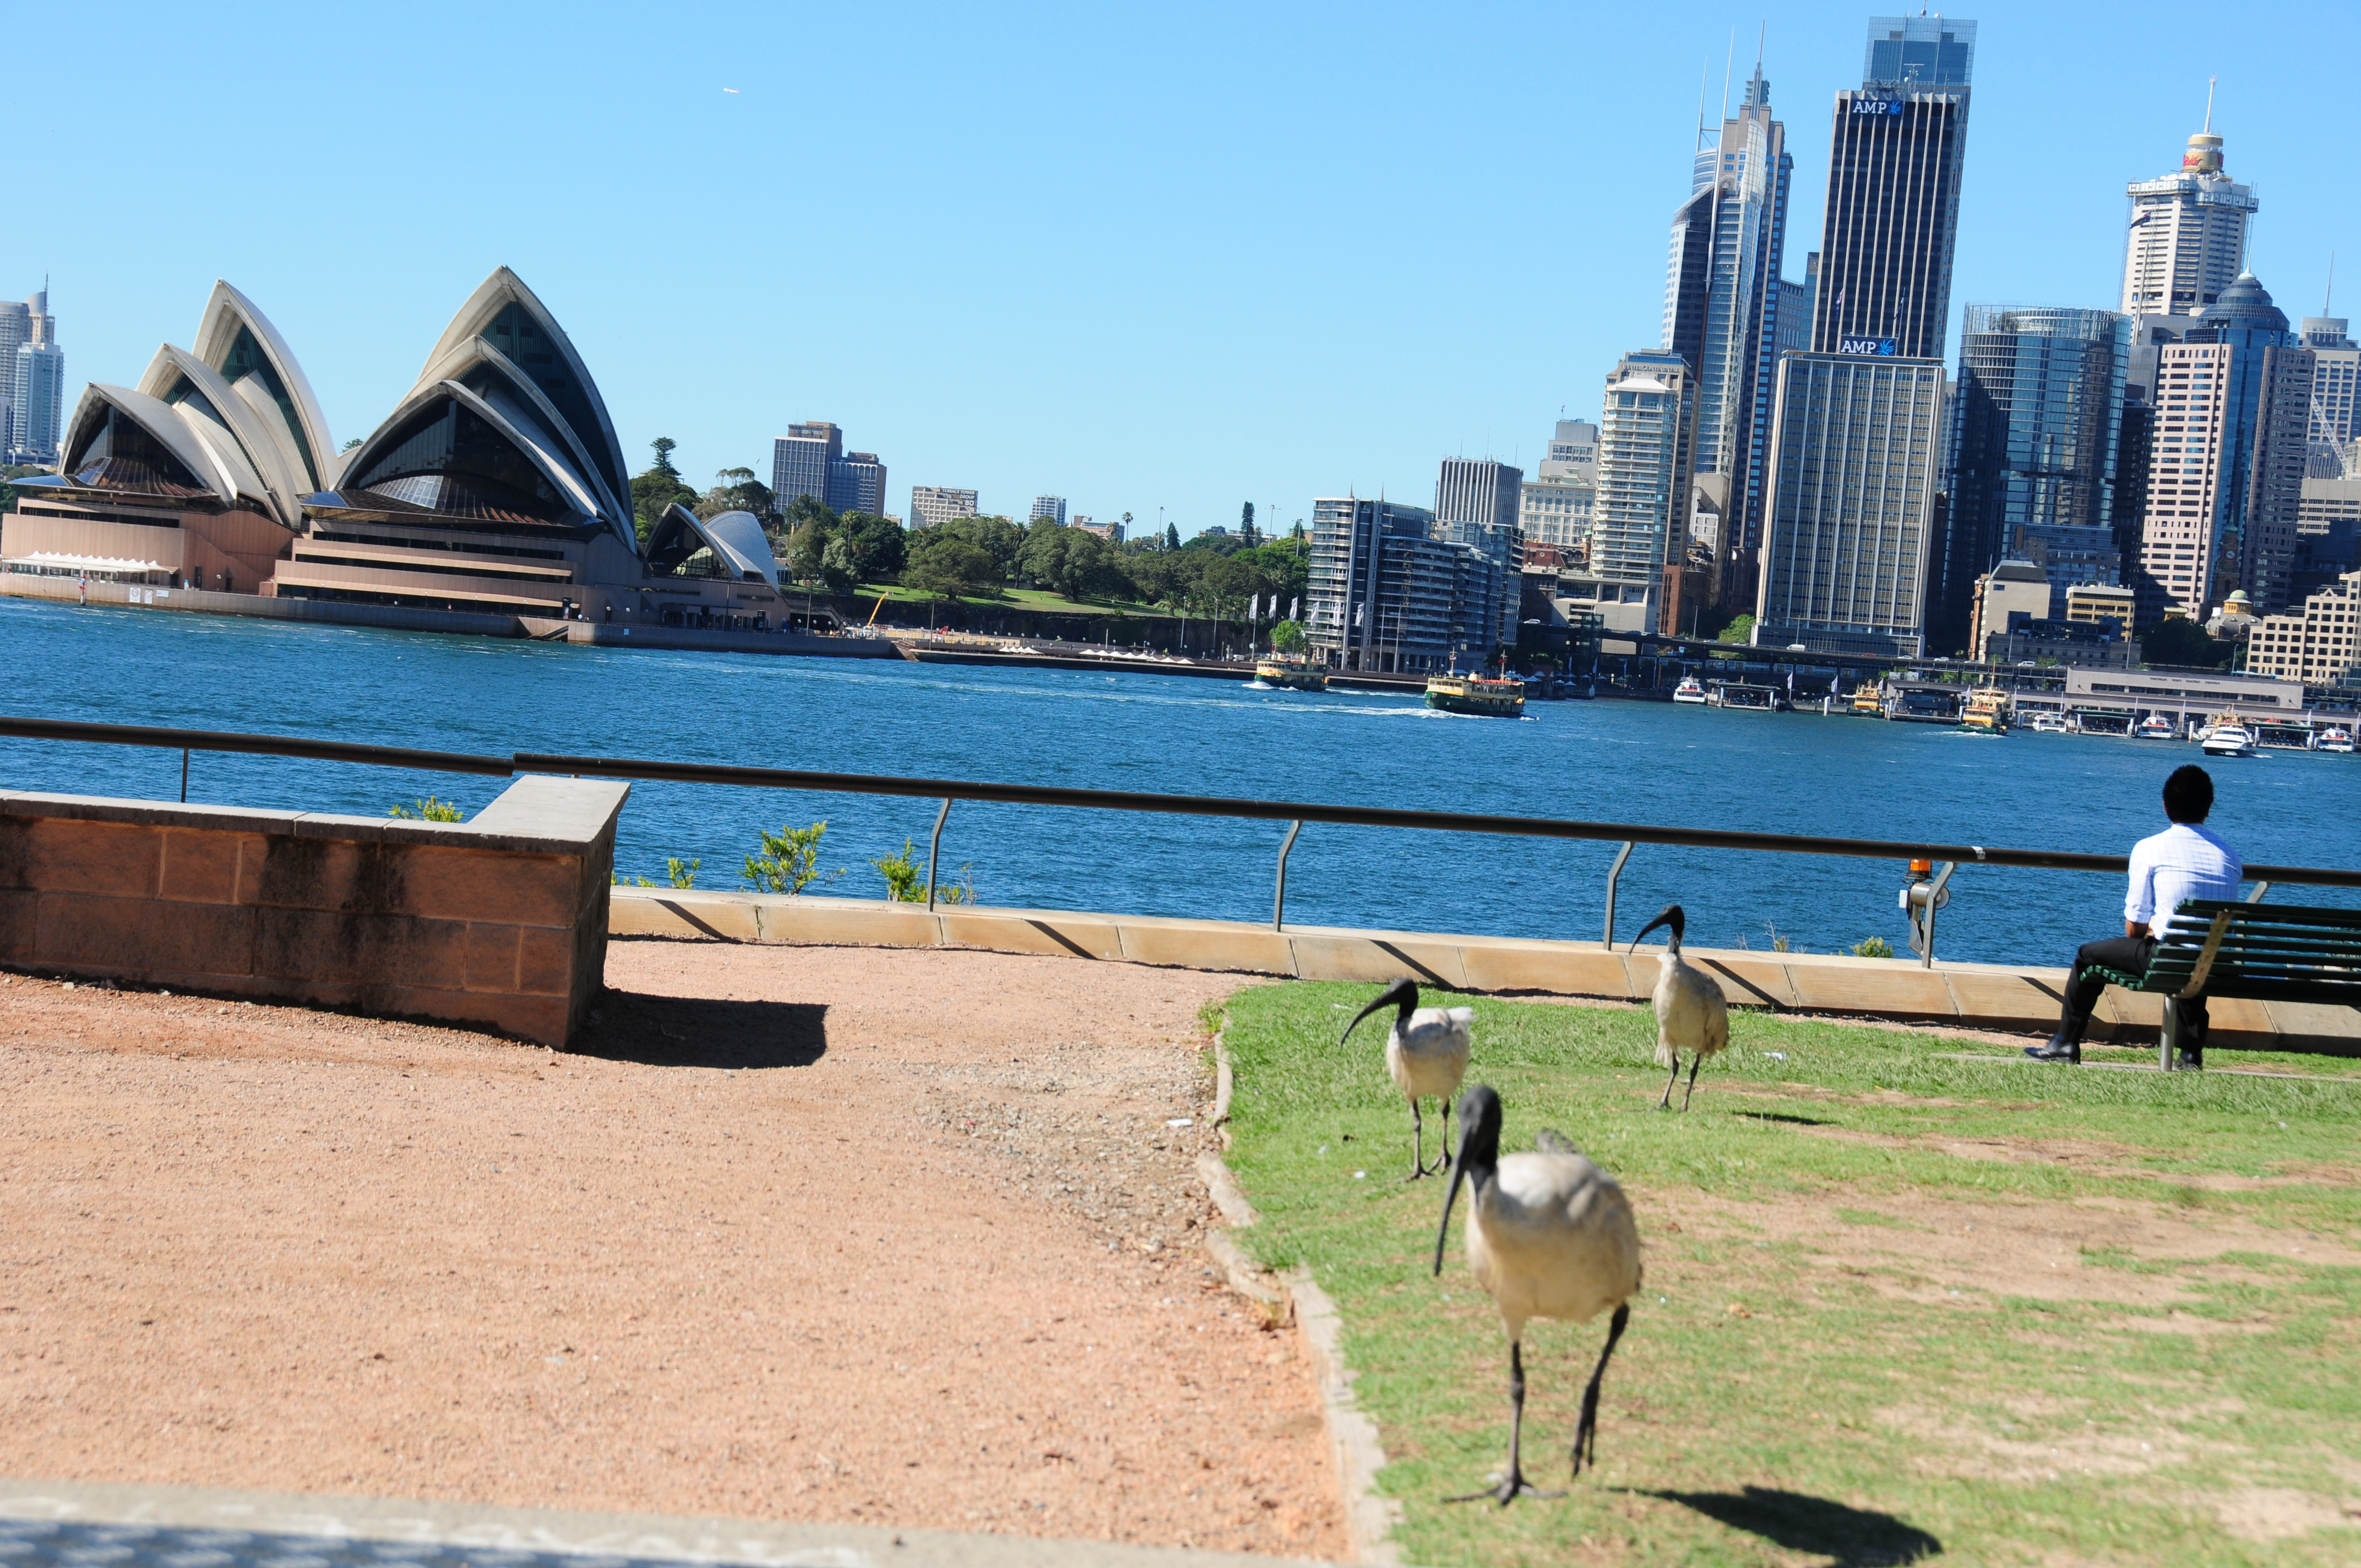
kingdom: Animalia
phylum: Chordata
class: Aves
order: Pelecaniformes
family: Threskiornithidae
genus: Threskiornis
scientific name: Threskiornis molucca
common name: Australian white ibis
